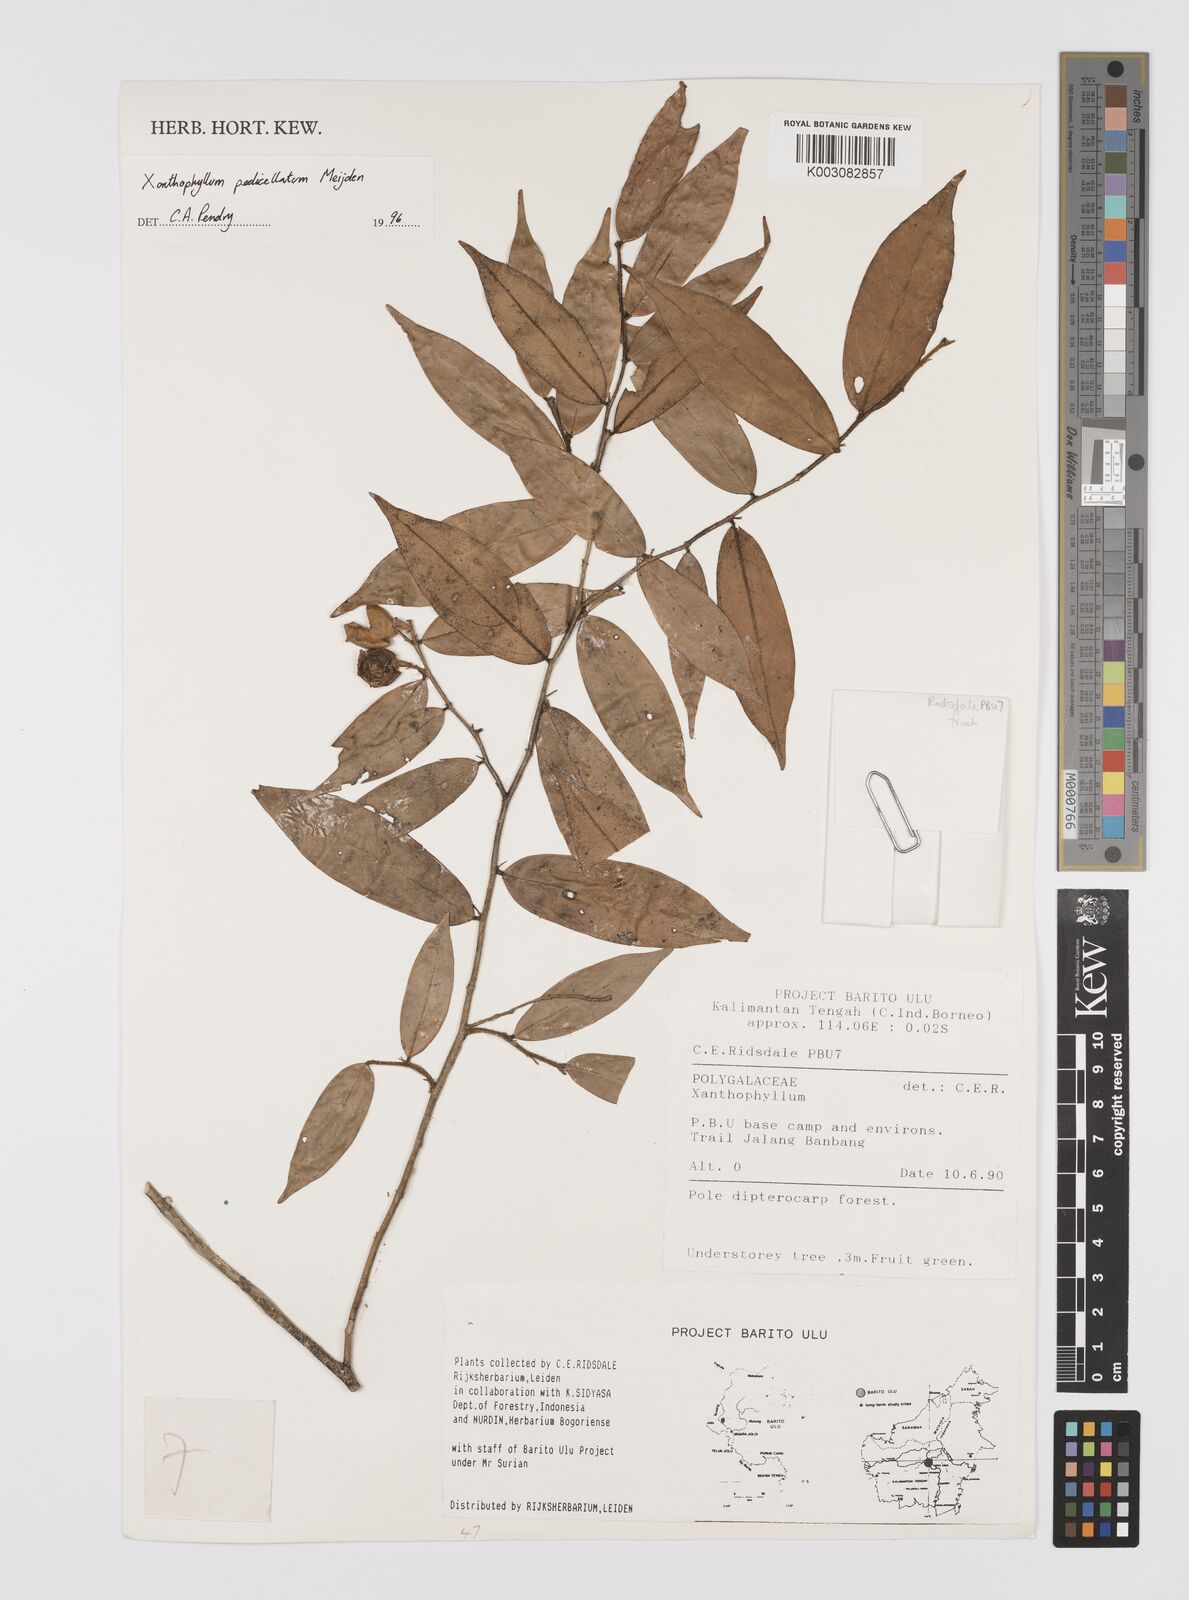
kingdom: Plantae
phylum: Tracheophyta
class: Magnoliopsida
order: Fabales
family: Polygalaceae
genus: Xanthophyllum
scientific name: Xanthophyllum pedicellatum
